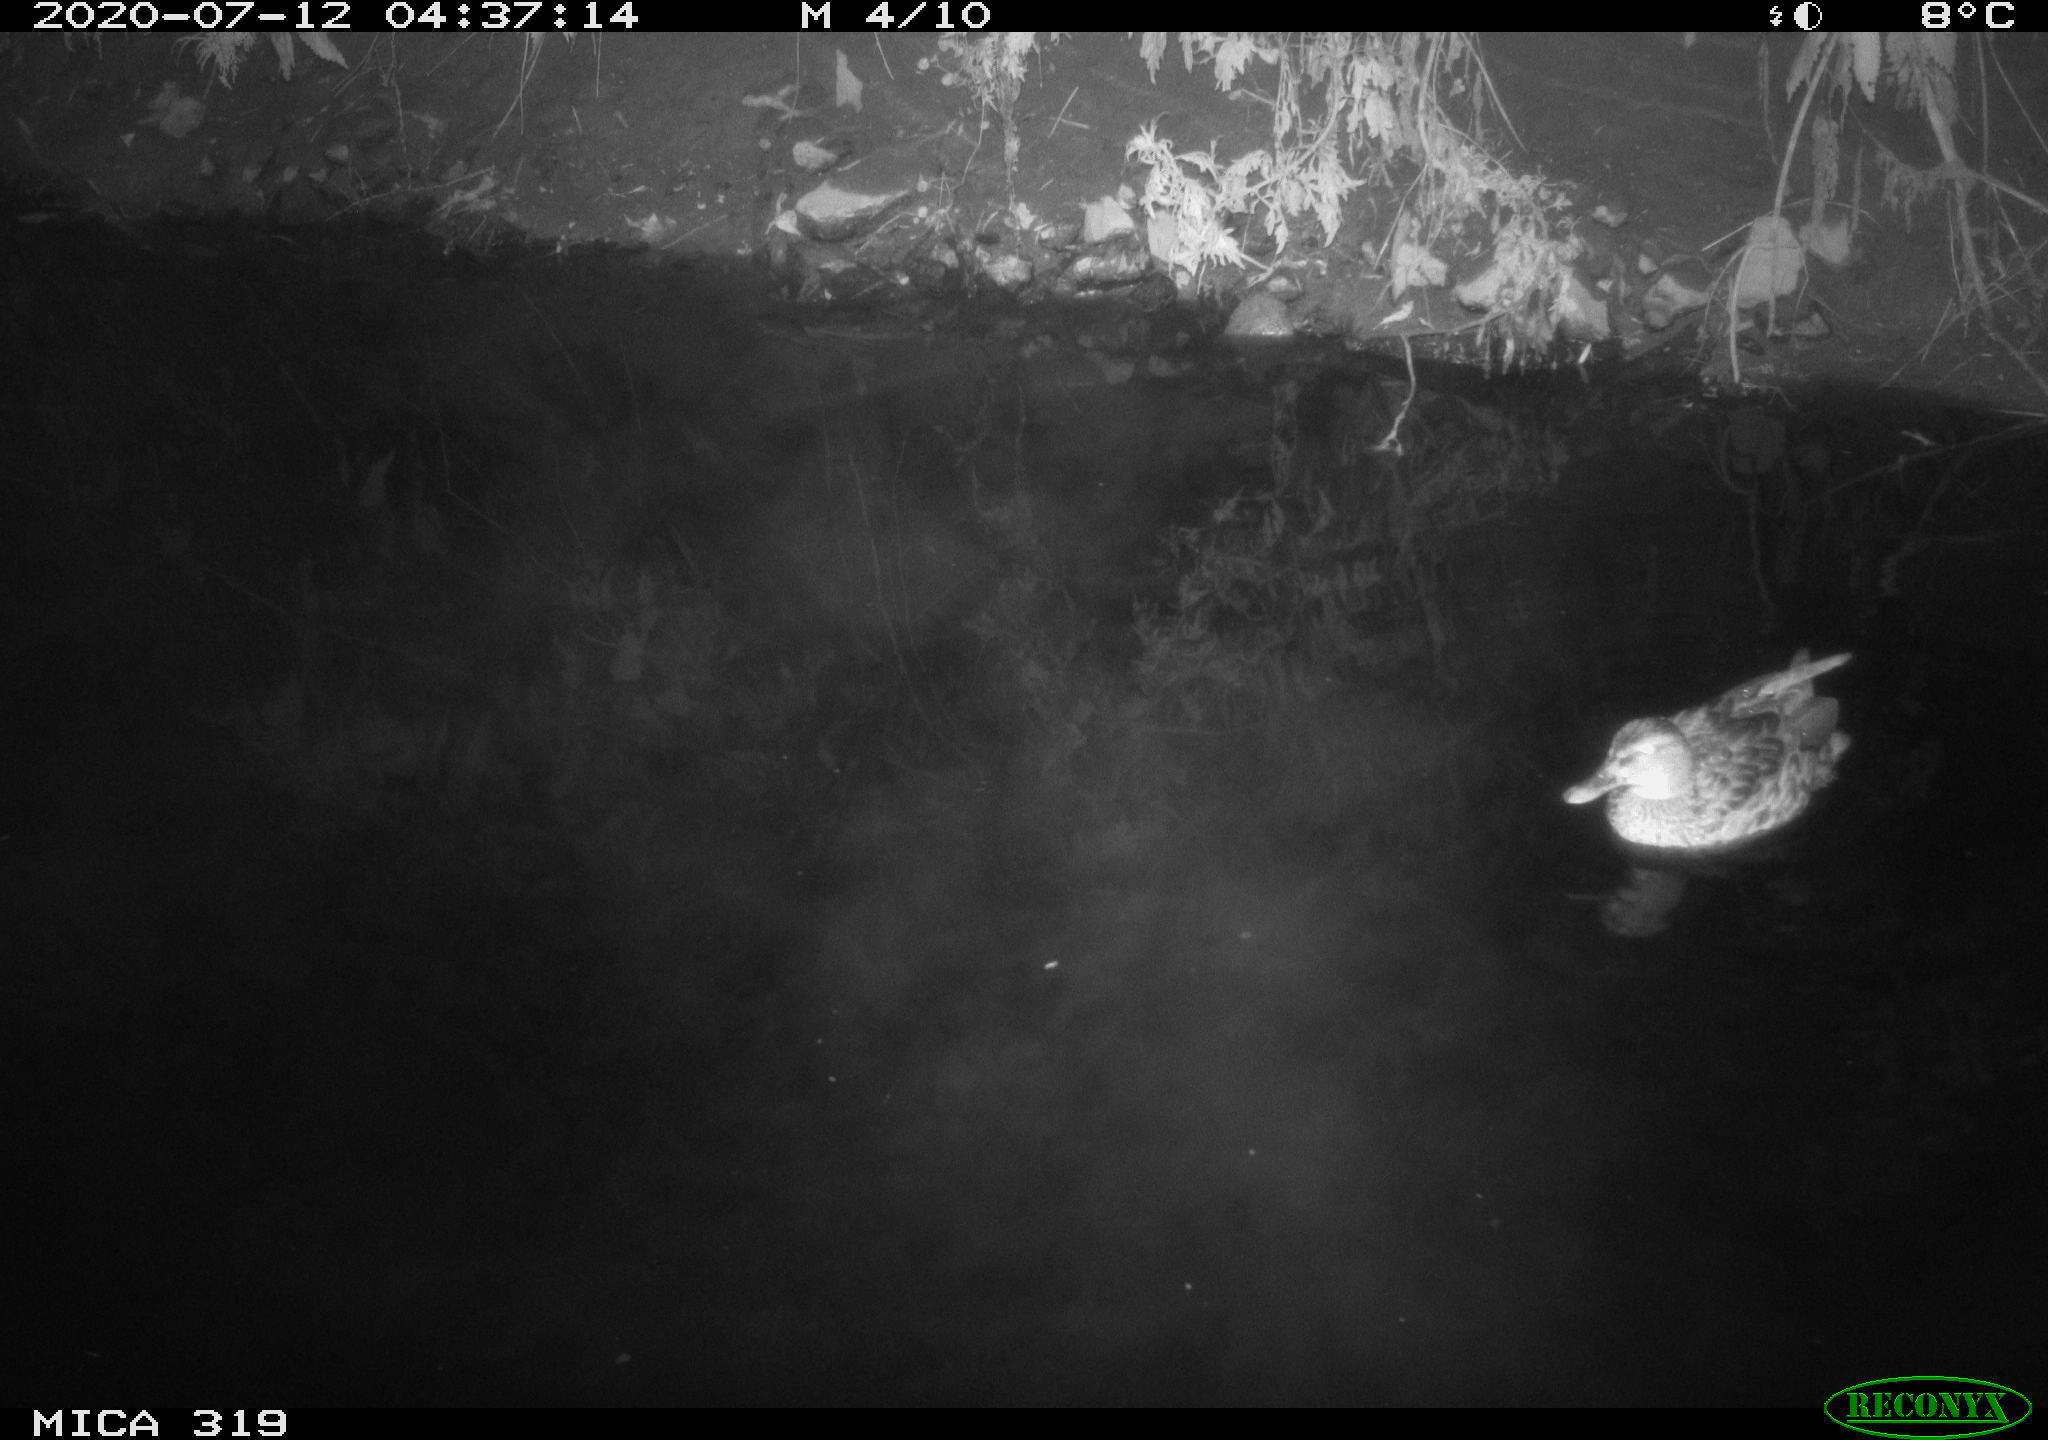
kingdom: Animalia
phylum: Chordata
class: Aves
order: Anseriformes
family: Anatidae
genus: Anas
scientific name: Anas platyrhynchos
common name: Mallard
